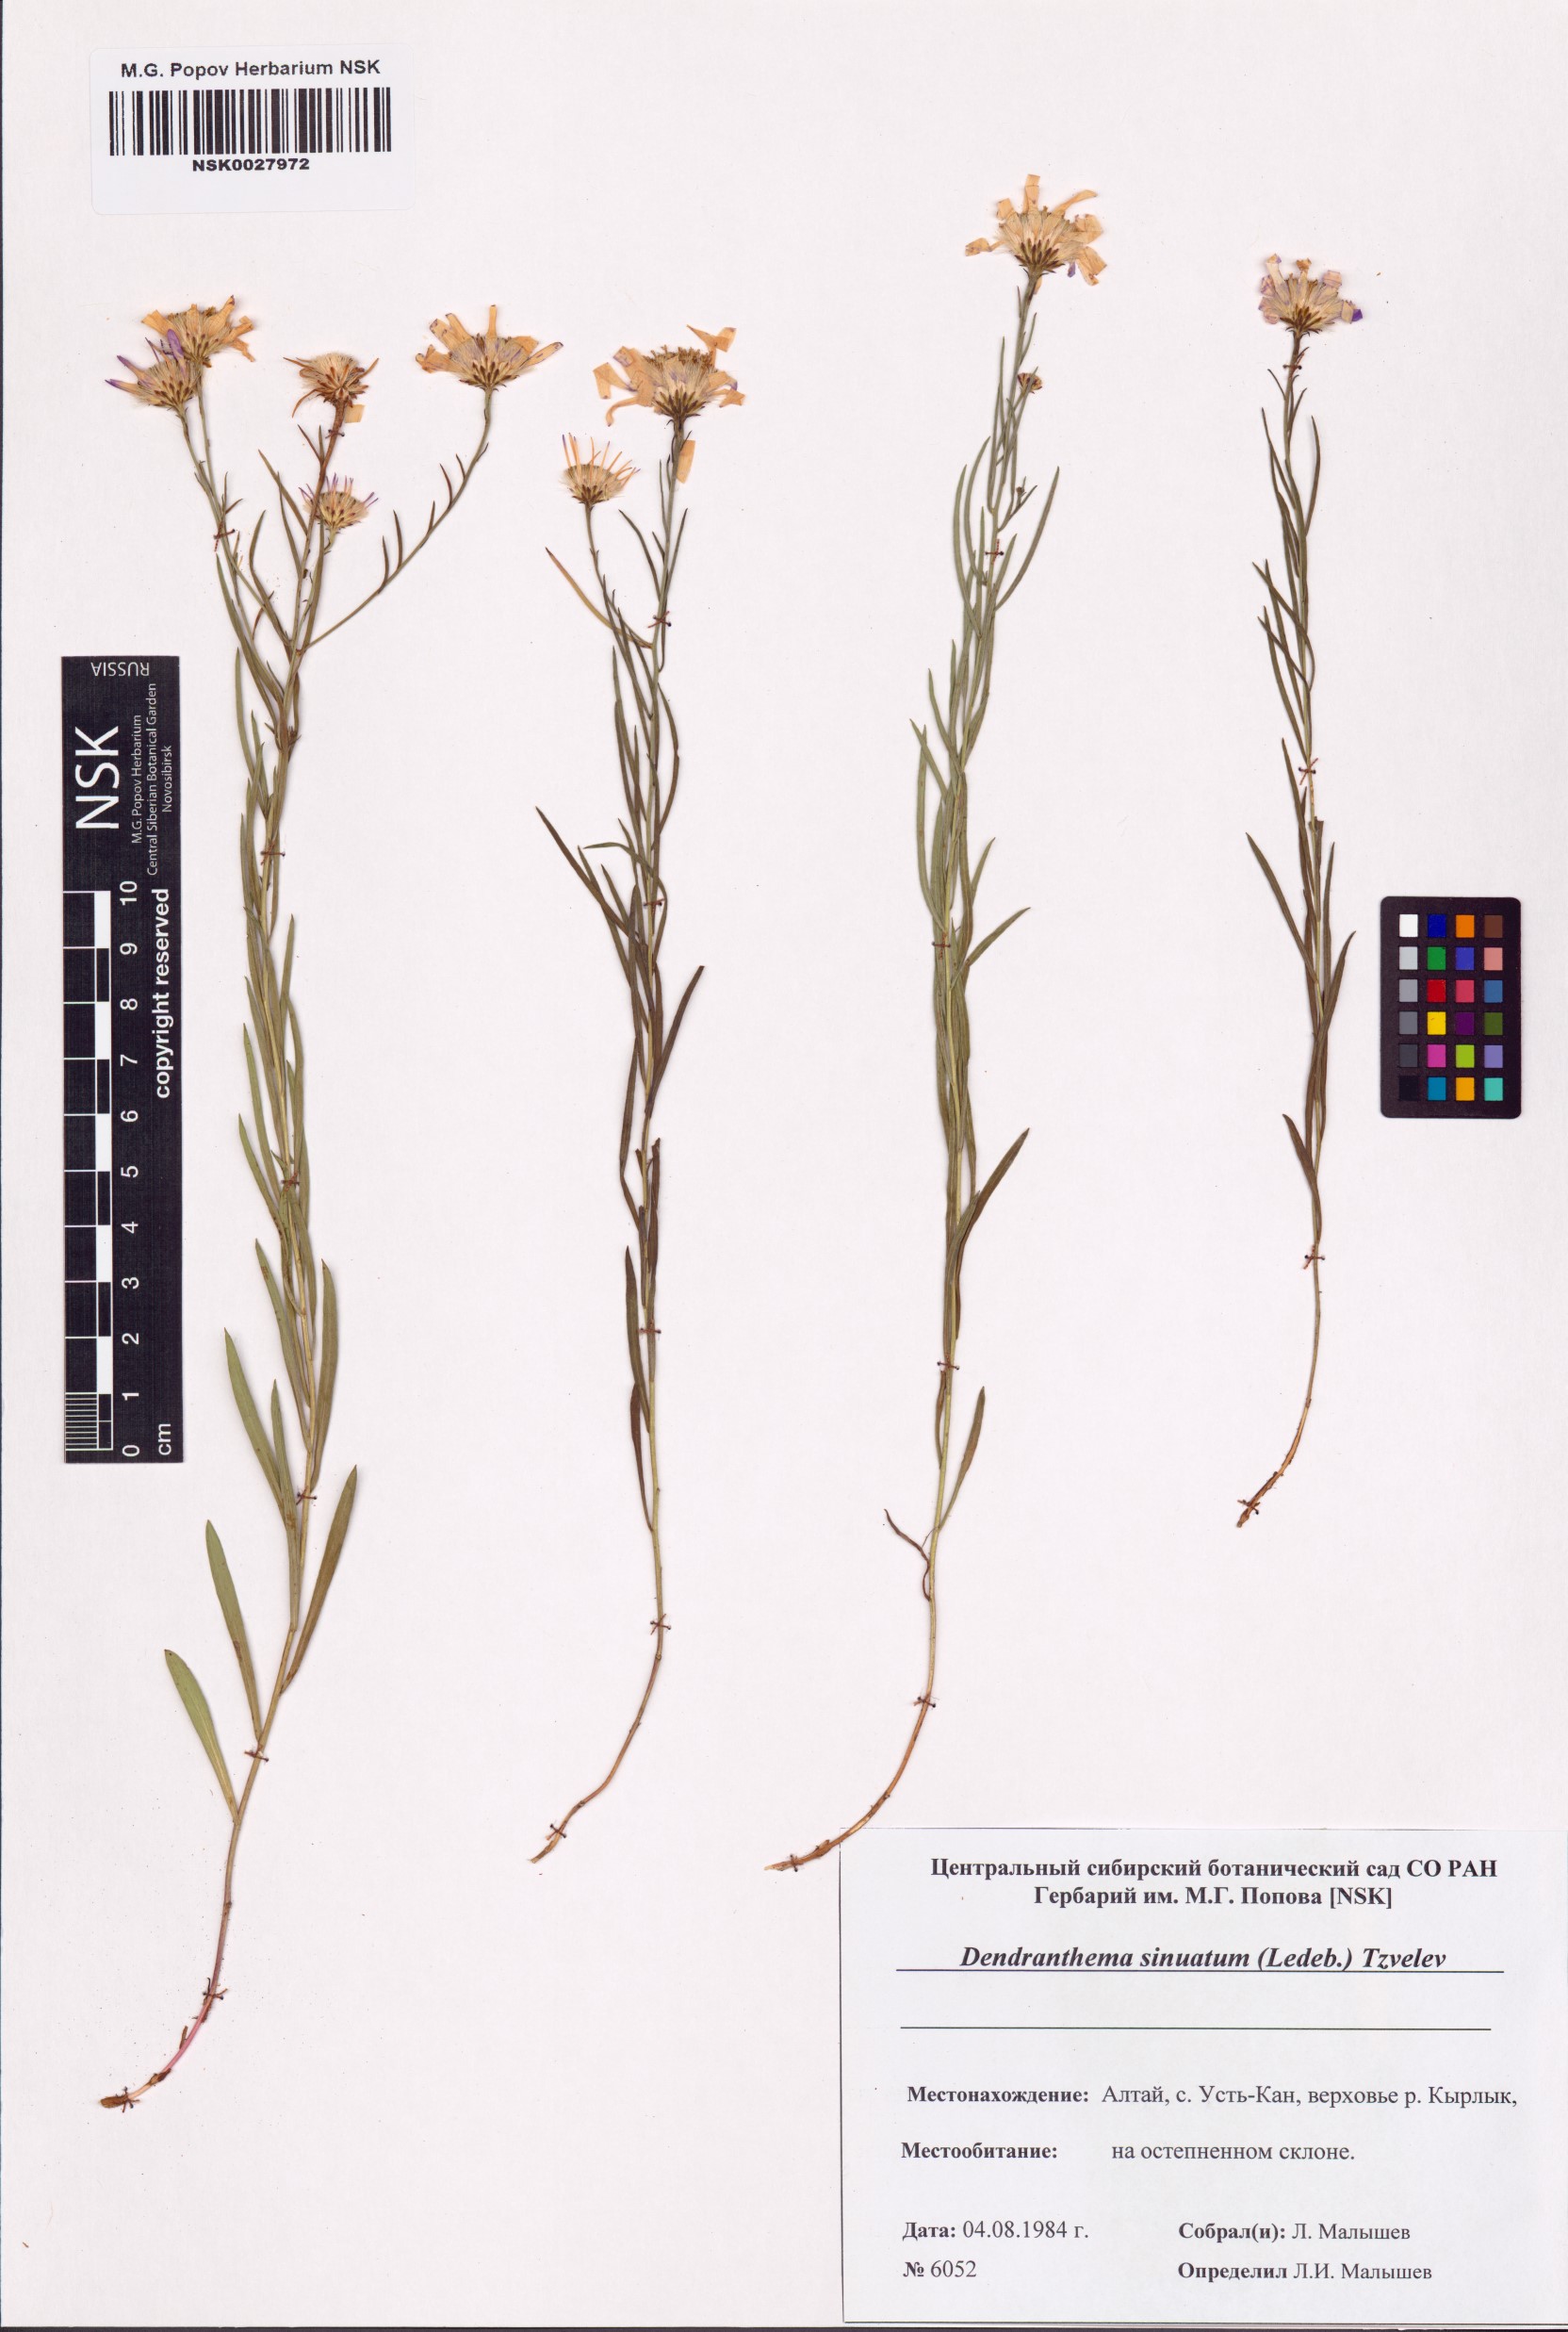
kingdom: Plantae
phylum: Tracheophyta
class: Magnoliopsida
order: Asterales
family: Asteraceae
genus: Chrysanthemum
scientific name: Chrysanthemum sinuatum
